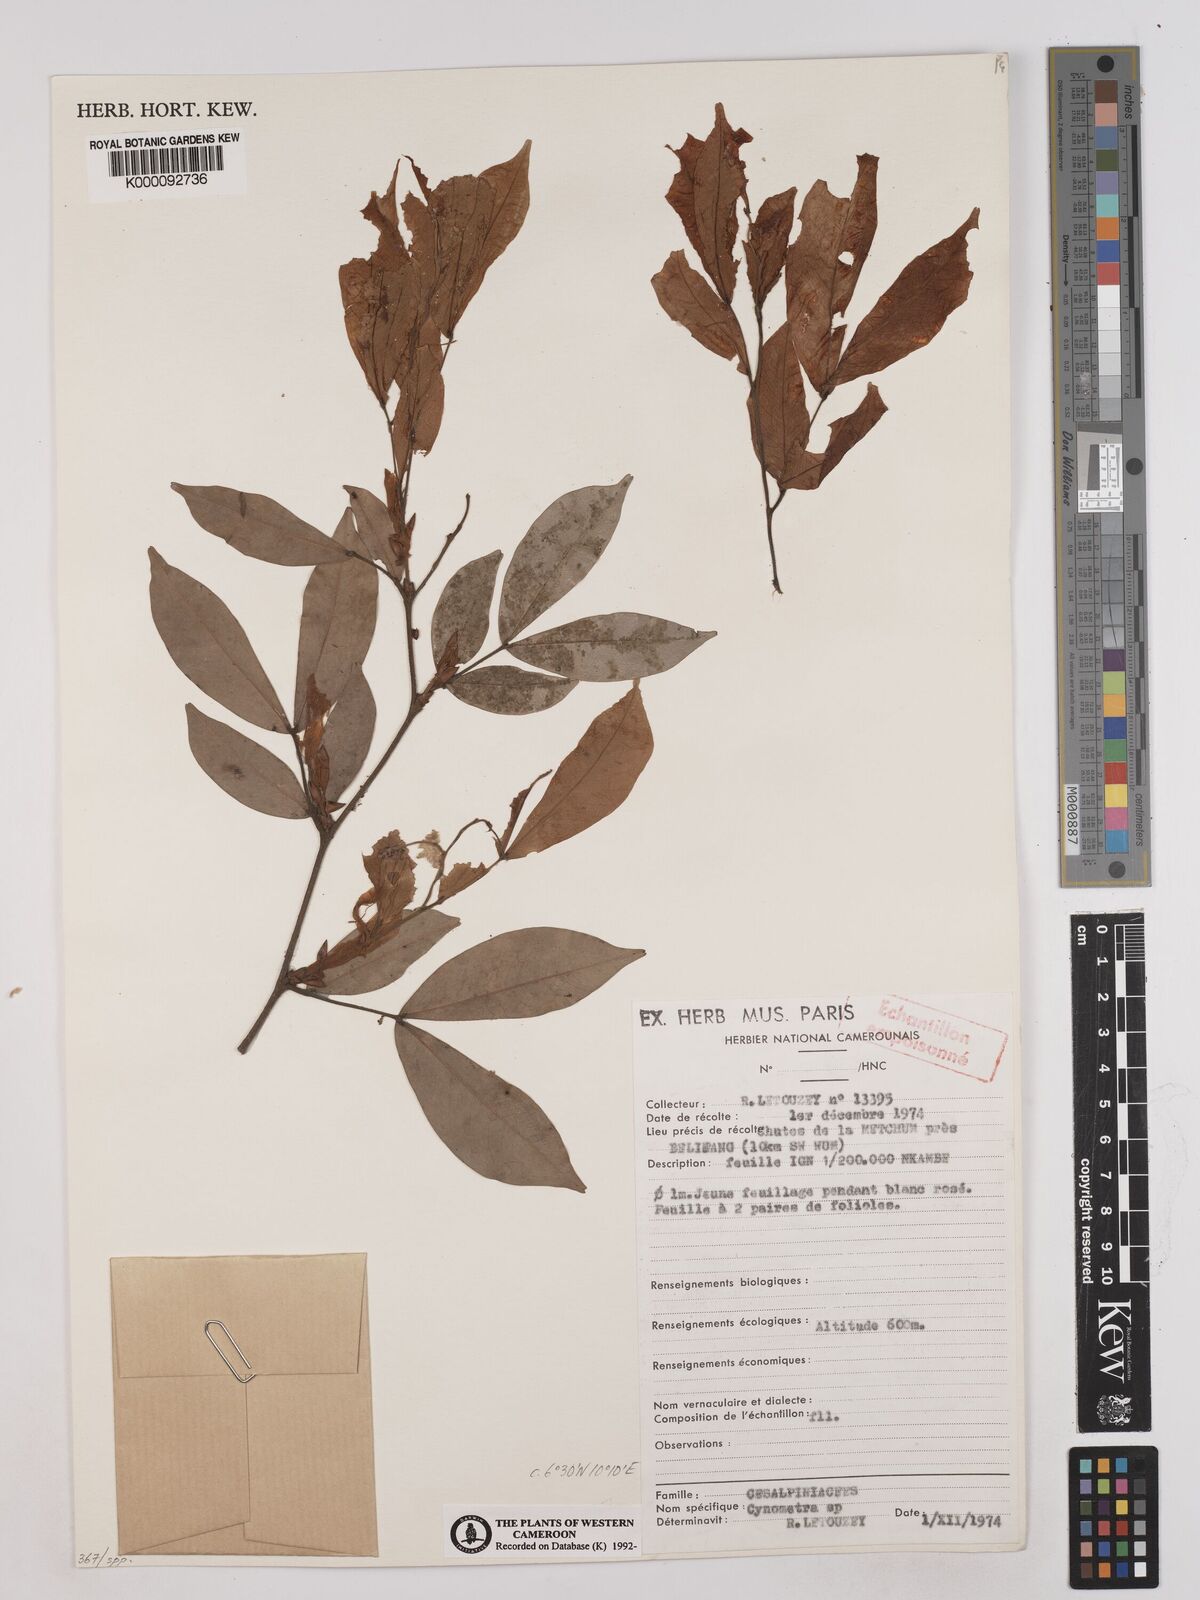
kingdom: Plantae
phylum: Tracheophyta
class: Magnoliopsida
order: Fabales
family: Fabaceae
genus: Cynometra
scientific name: Cynometra
